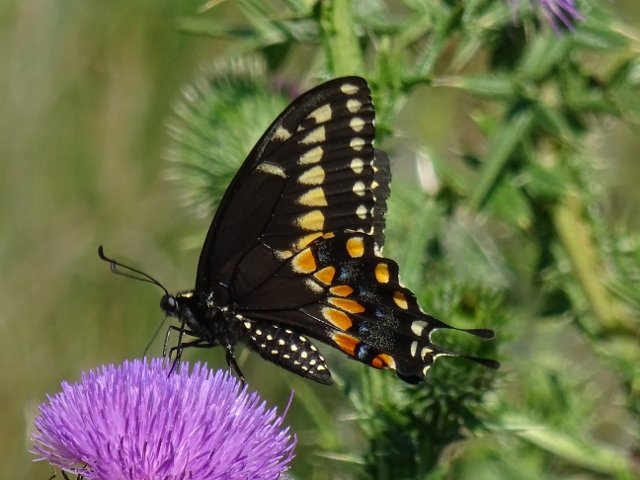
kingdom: Animalia
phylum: Arthropoda
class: Insecta
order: Lepidoptera
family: Papilionidae
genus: Papilio
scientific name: Papilio polyxenes
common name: Black Swallowtail
